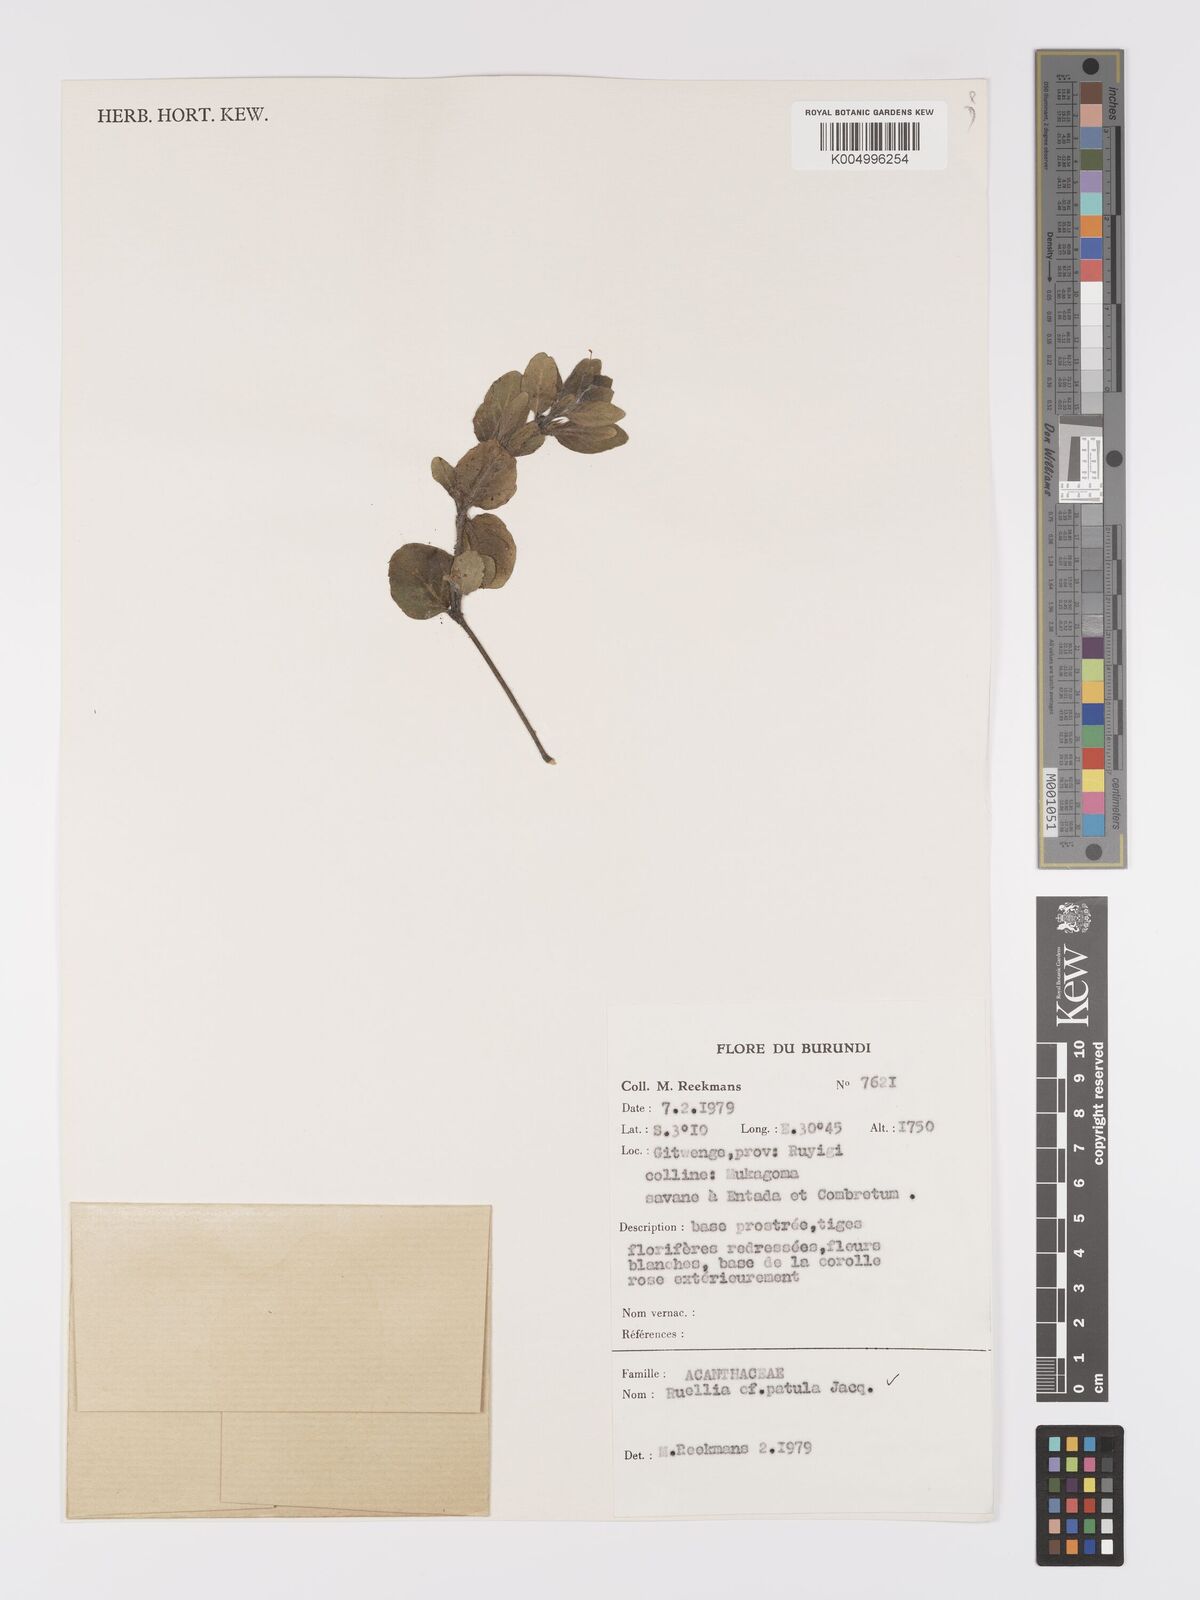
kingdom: Plantae
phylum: Tracheophyta
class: Magnoliopsida
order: Lamiales
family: Acanthaceae
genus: Ruellia
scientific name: Ruellia patula
